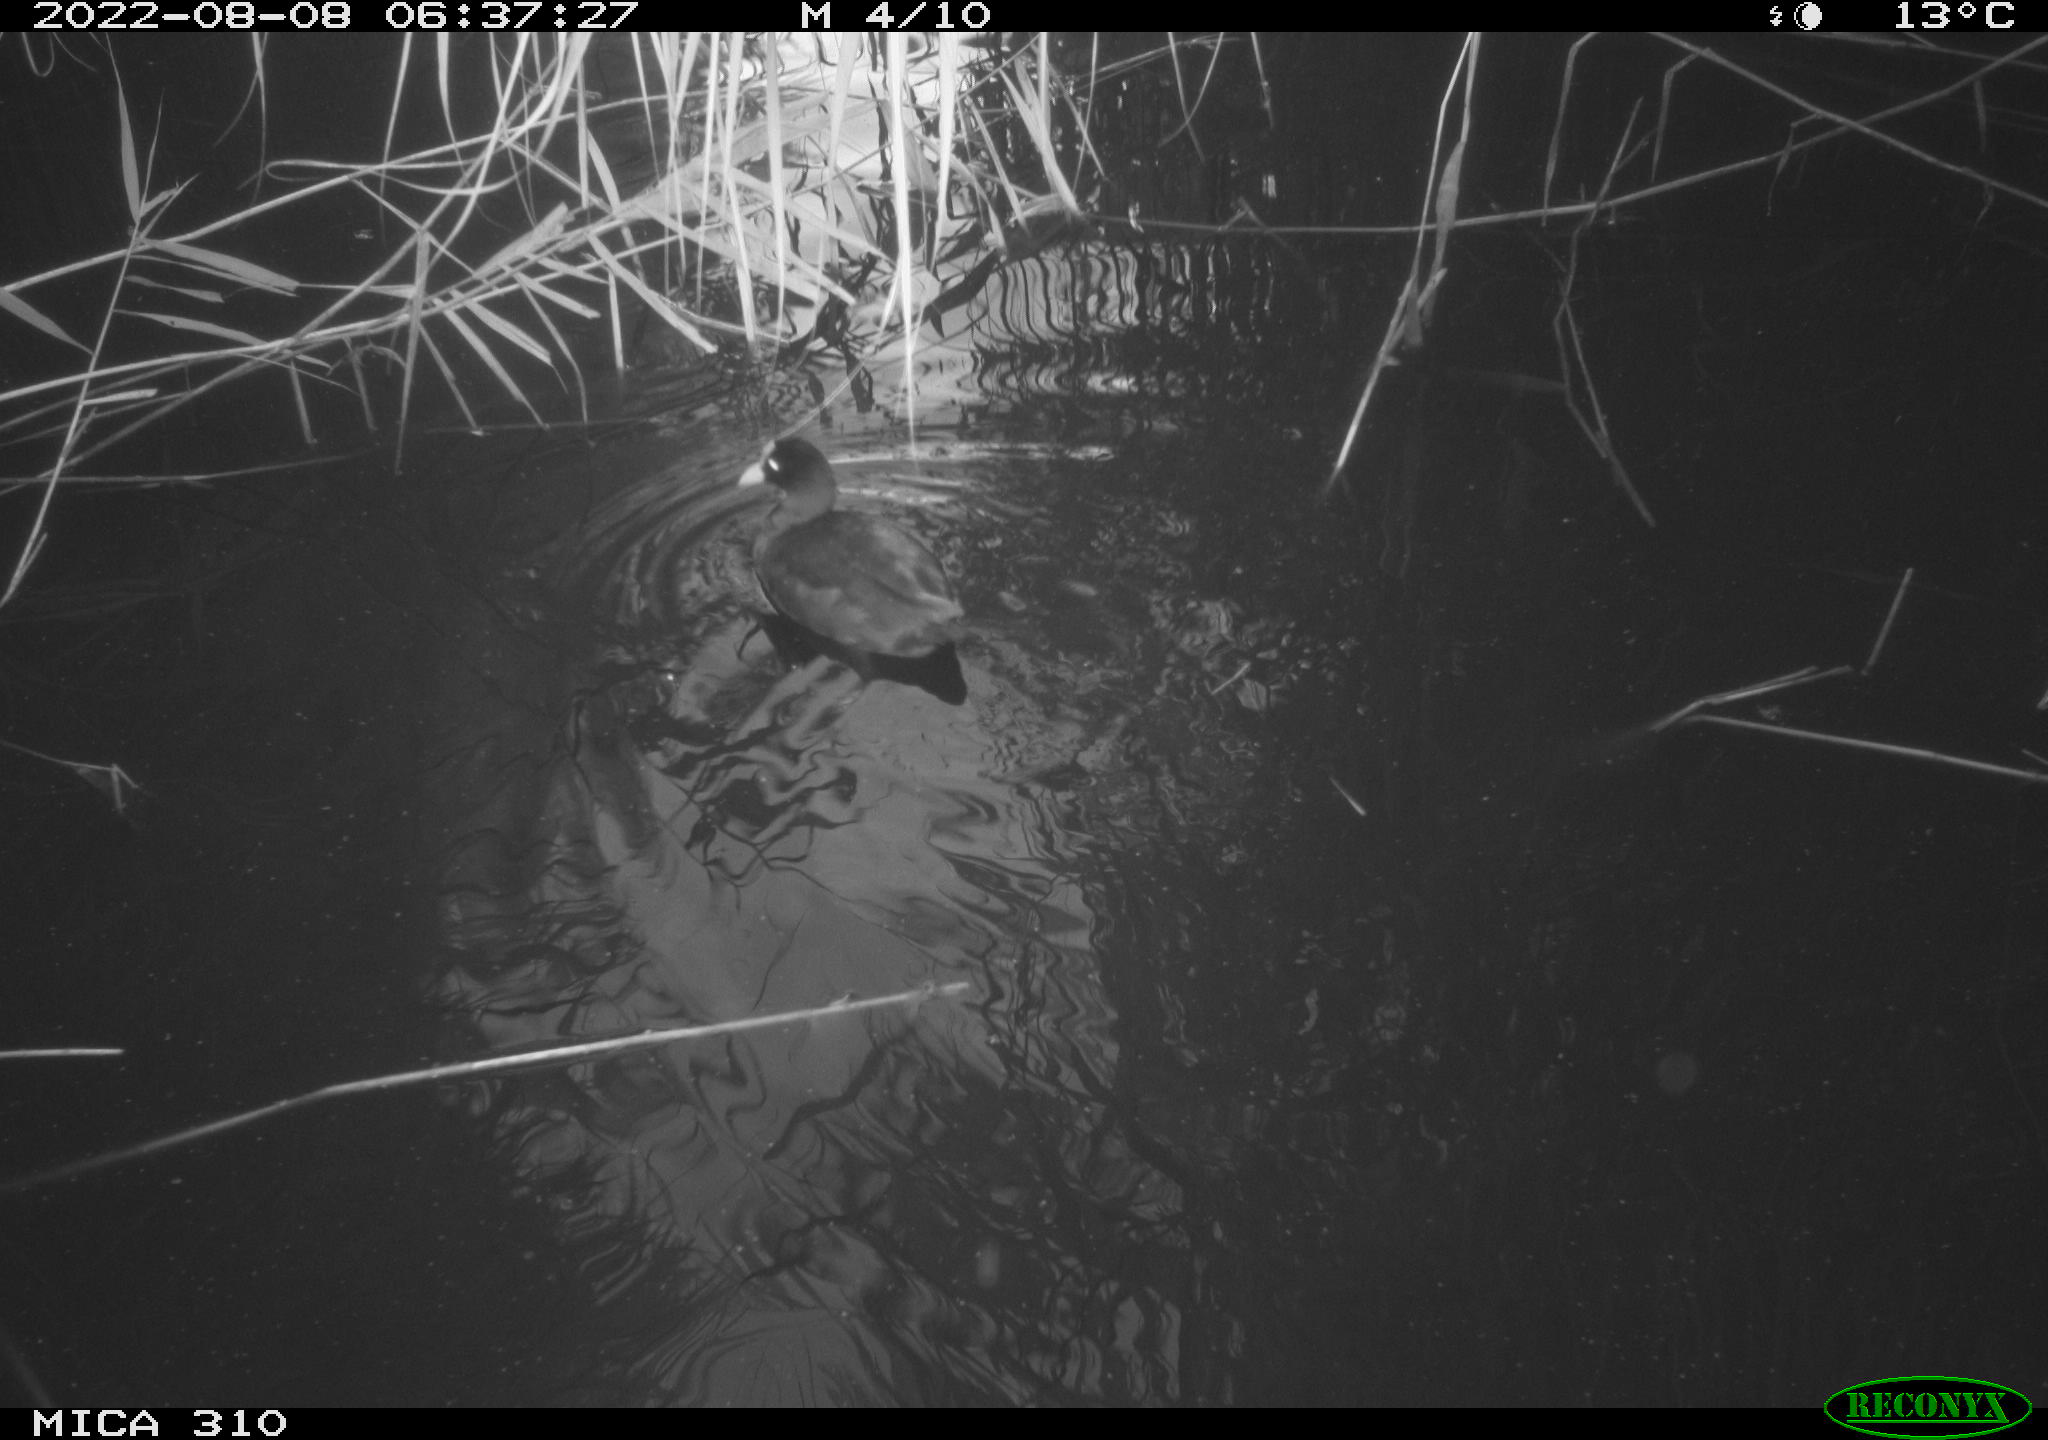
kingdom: Animalia
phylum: Chordata
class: Aves
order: Gruiformes
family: Rallidae
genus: Fulica
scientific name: Fulica atra
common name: Eurasian coot
